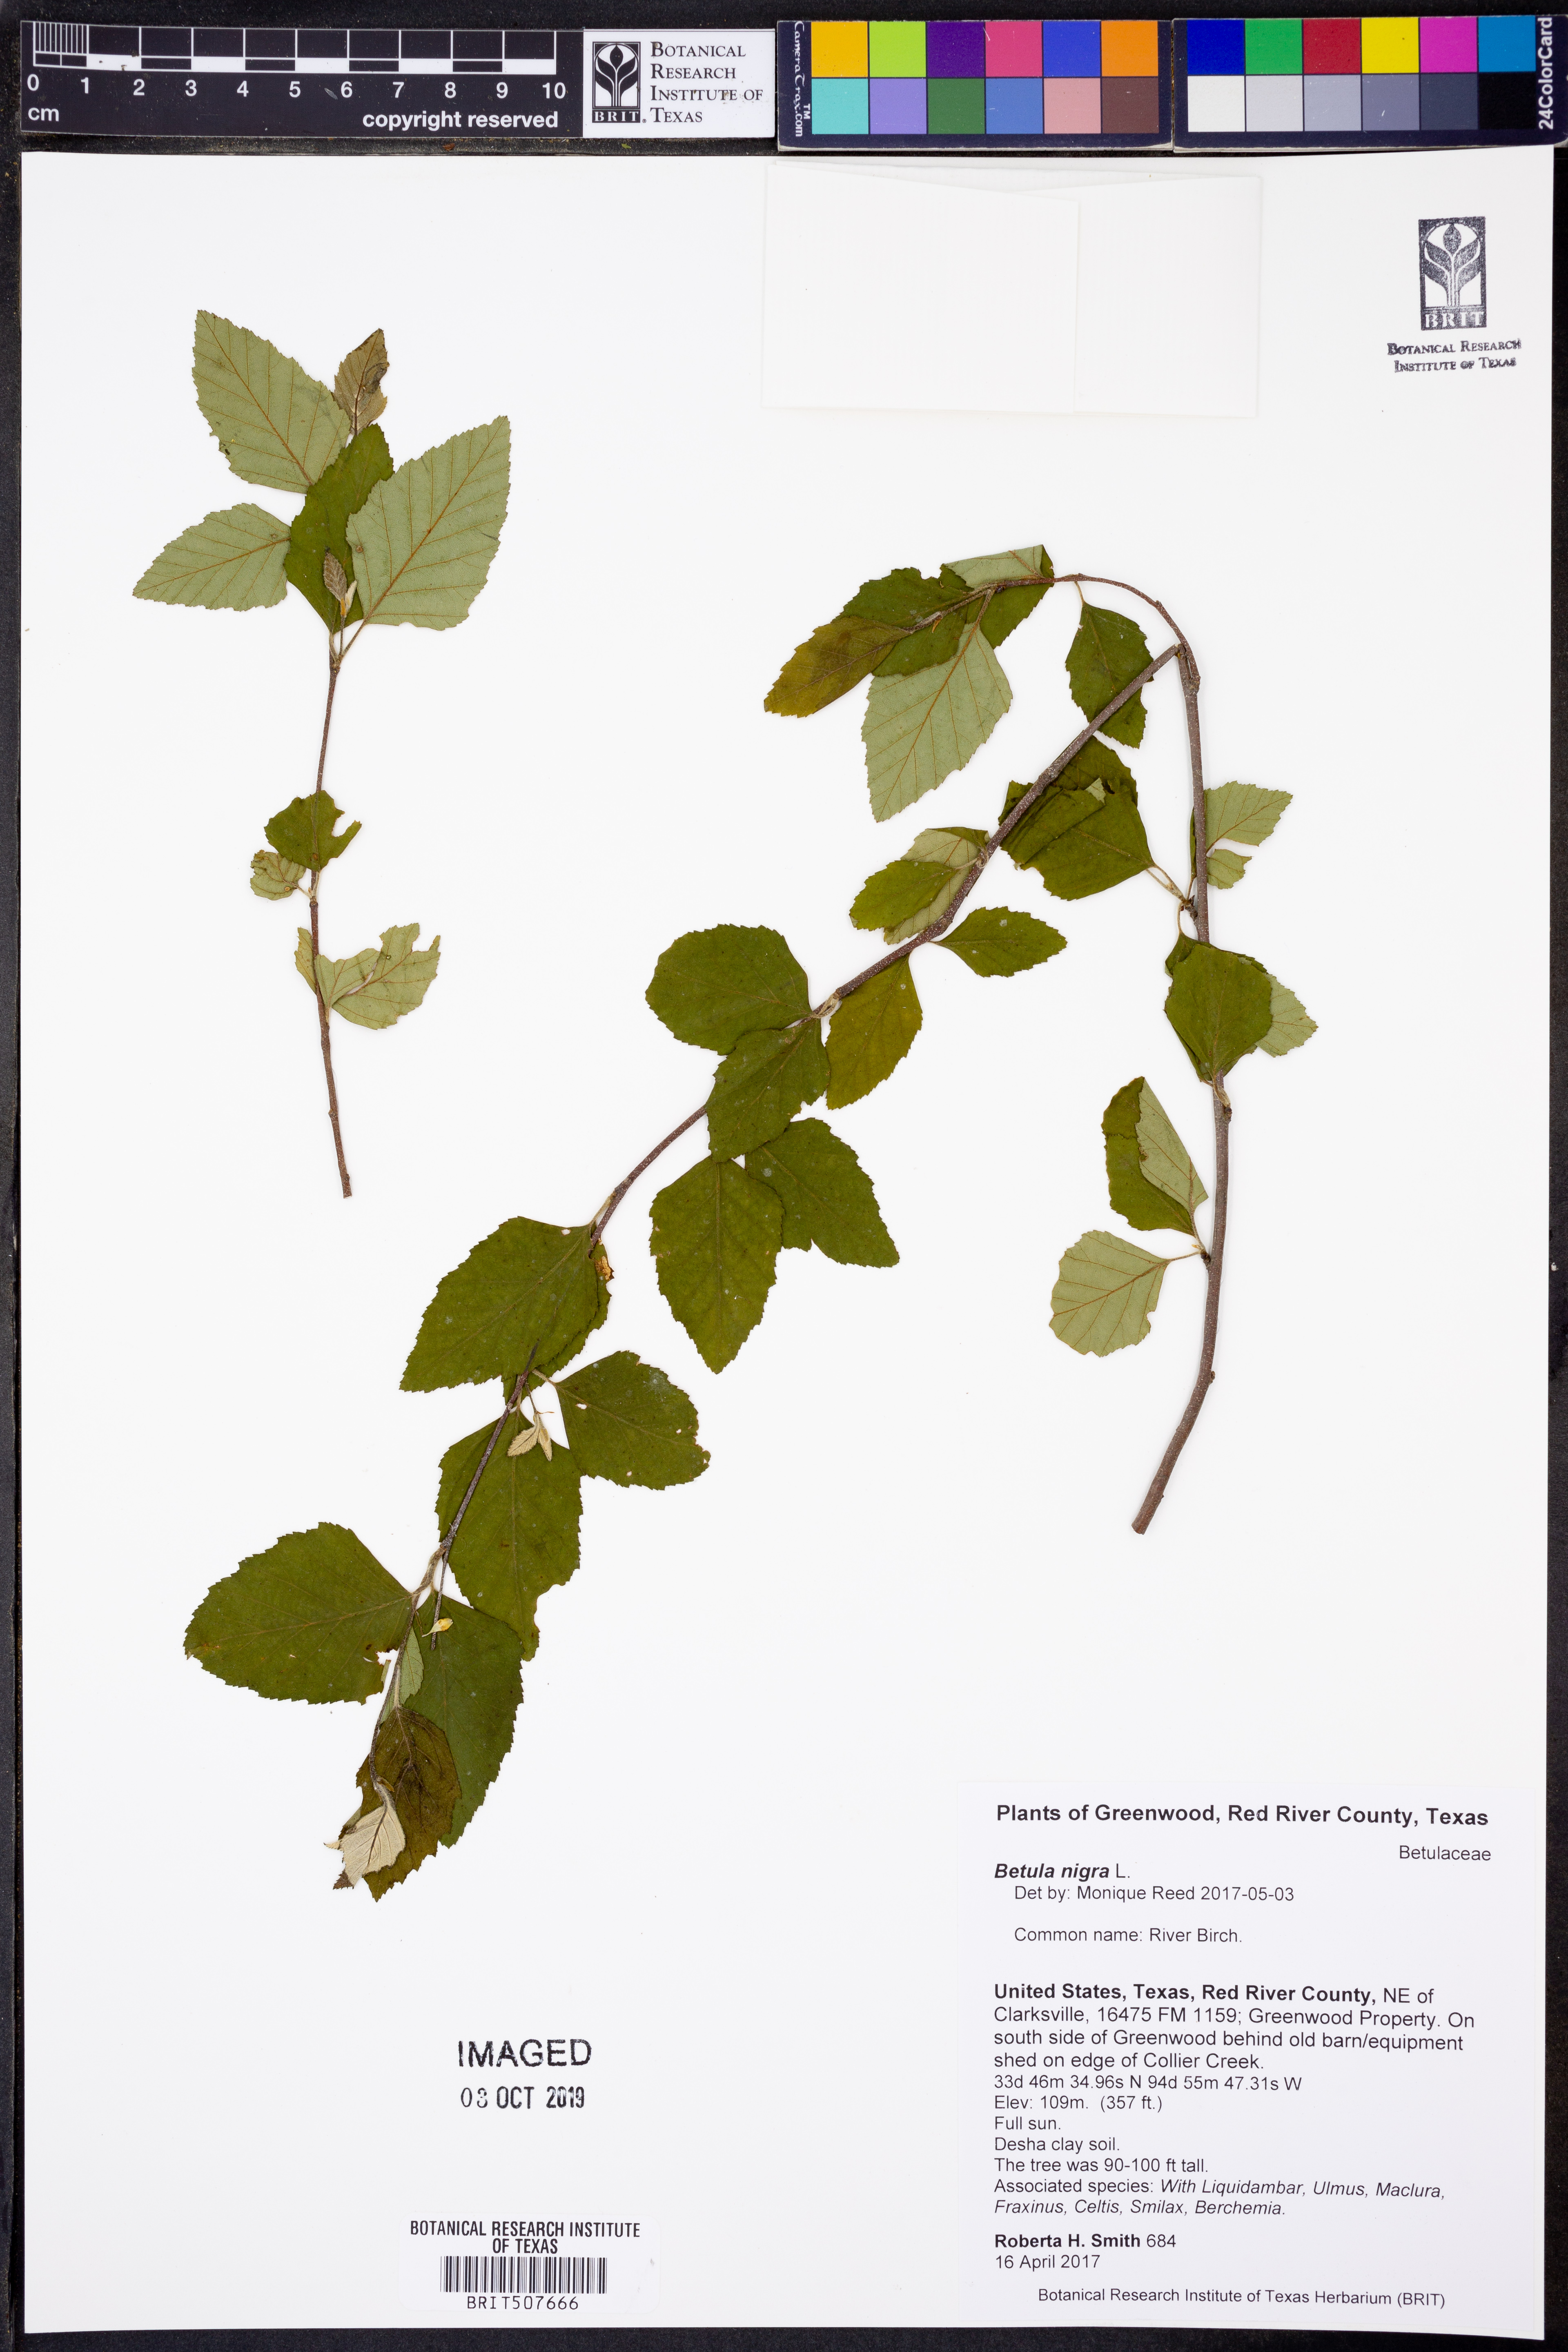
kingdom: Plantae
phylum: Tracheophyta
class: Magnoliopsida
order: Fagales
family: Betulaceae
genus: Betula
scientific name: Betula nigra
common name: Black birch
